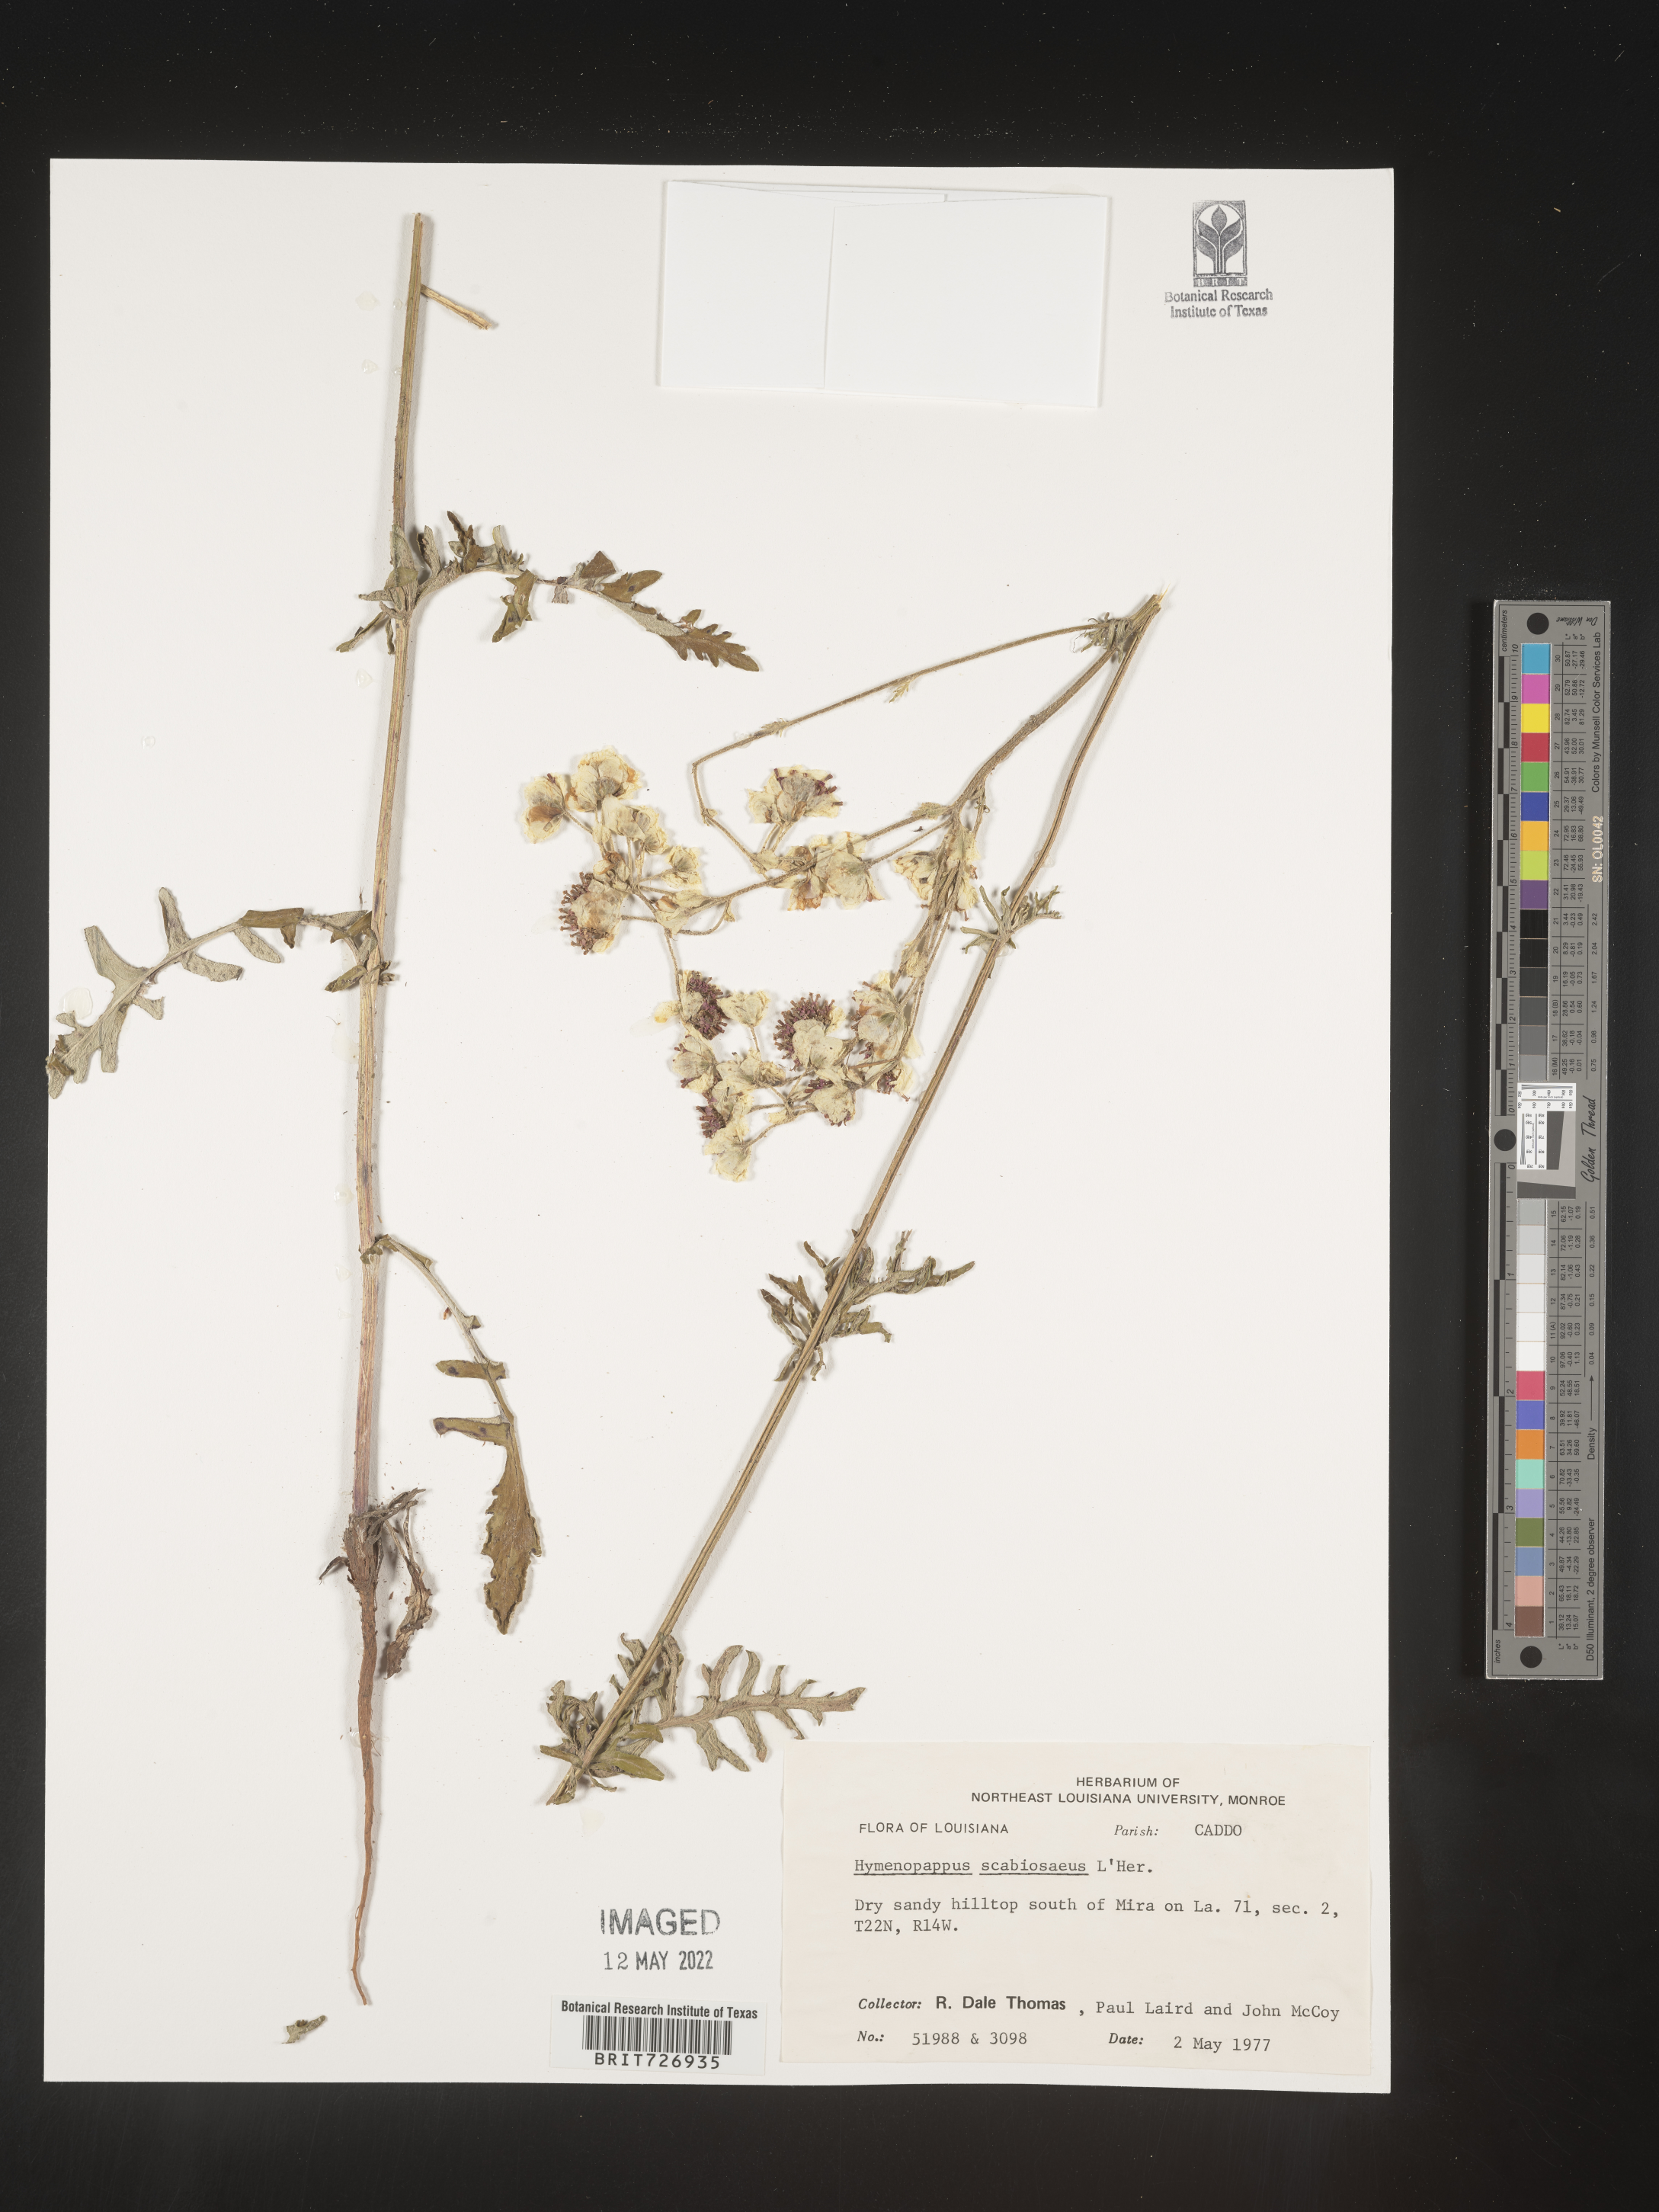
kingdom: Plantae
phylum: Tracheophyta
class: Magnoliopsida
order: Asterales
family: Asteraceae
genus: Hymenopappus
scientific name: Hymenopappus scabiosaeus
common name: Carolina woollywhite
